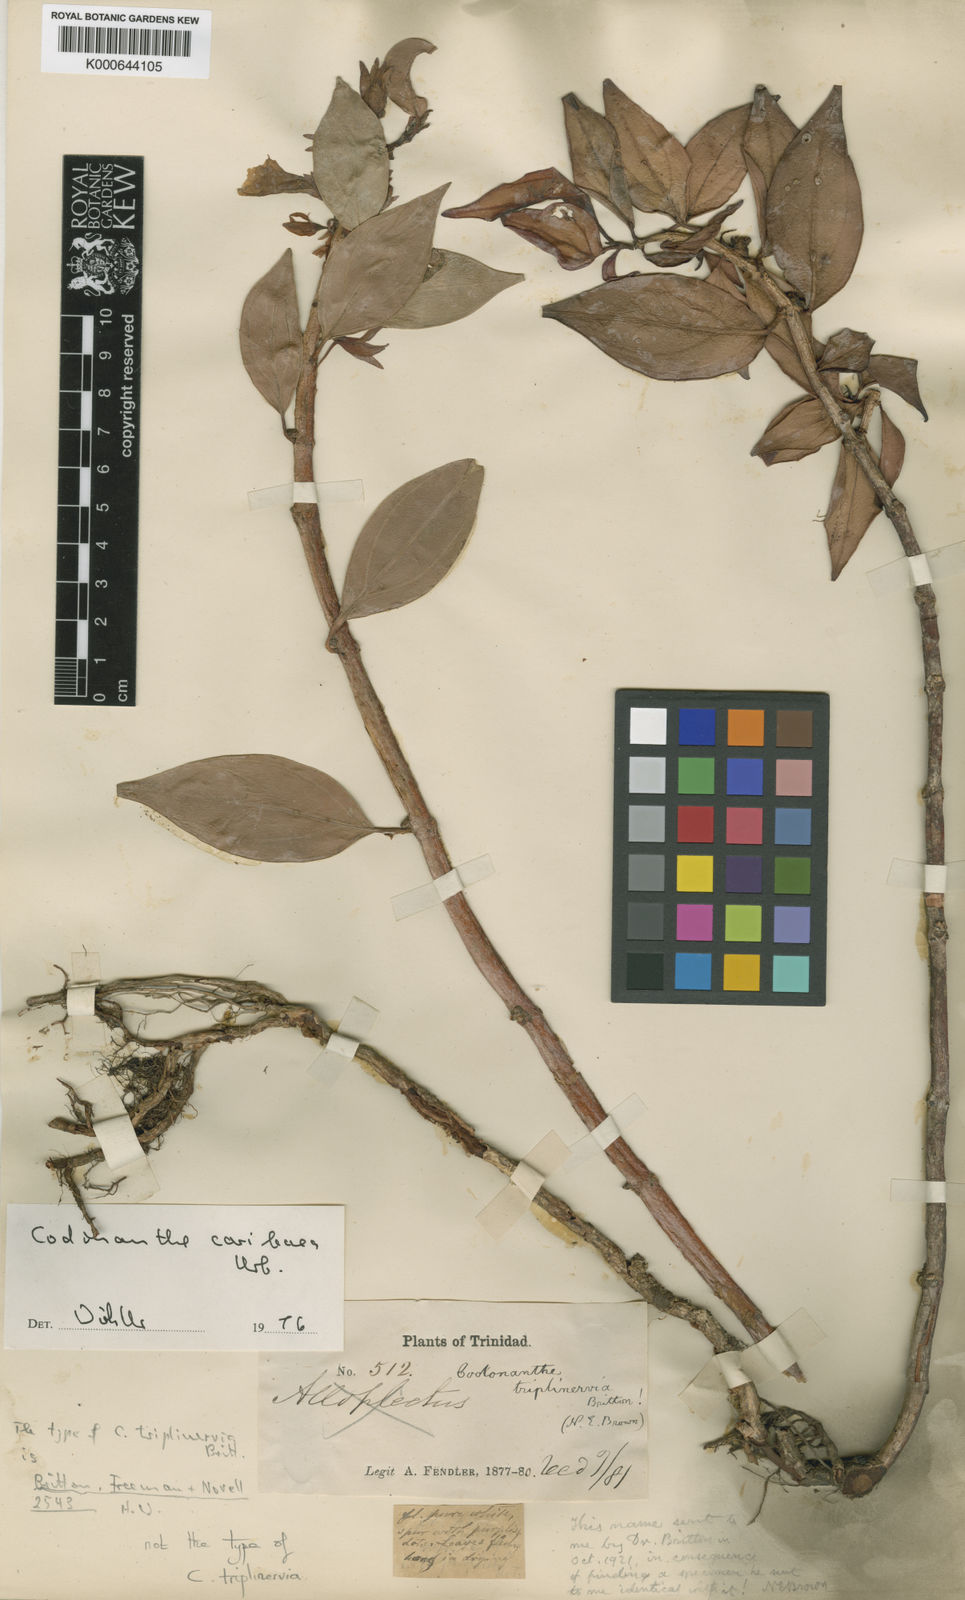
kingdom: Plantae
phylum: Tracheophyta
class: Magnoliopsida
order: Lamiales
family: Gesneriaceae
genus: Codonanthopsis
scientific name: Codonanthopsis caribaea
